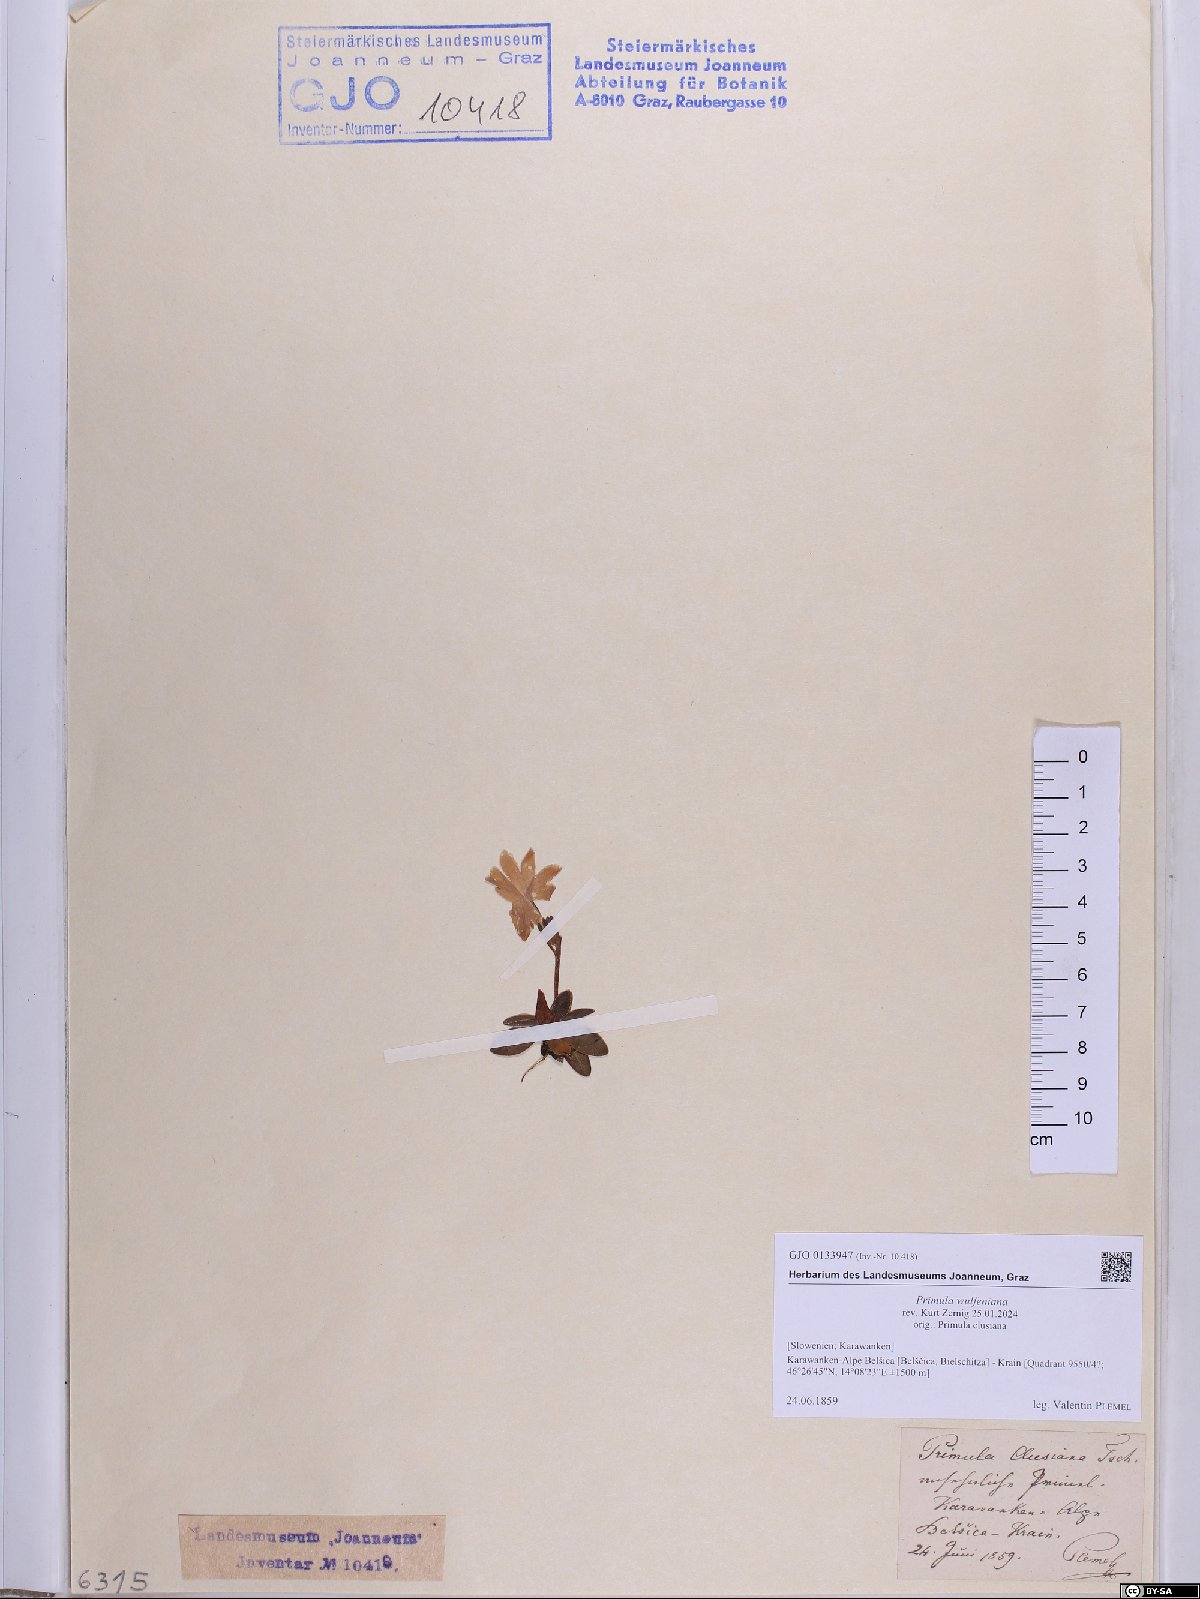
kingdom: Plantae
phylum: Tracheophyta
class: Magnoliopsida
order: Ericales
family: Primulaceae
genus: Primula
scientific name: Primula wulfeniana
